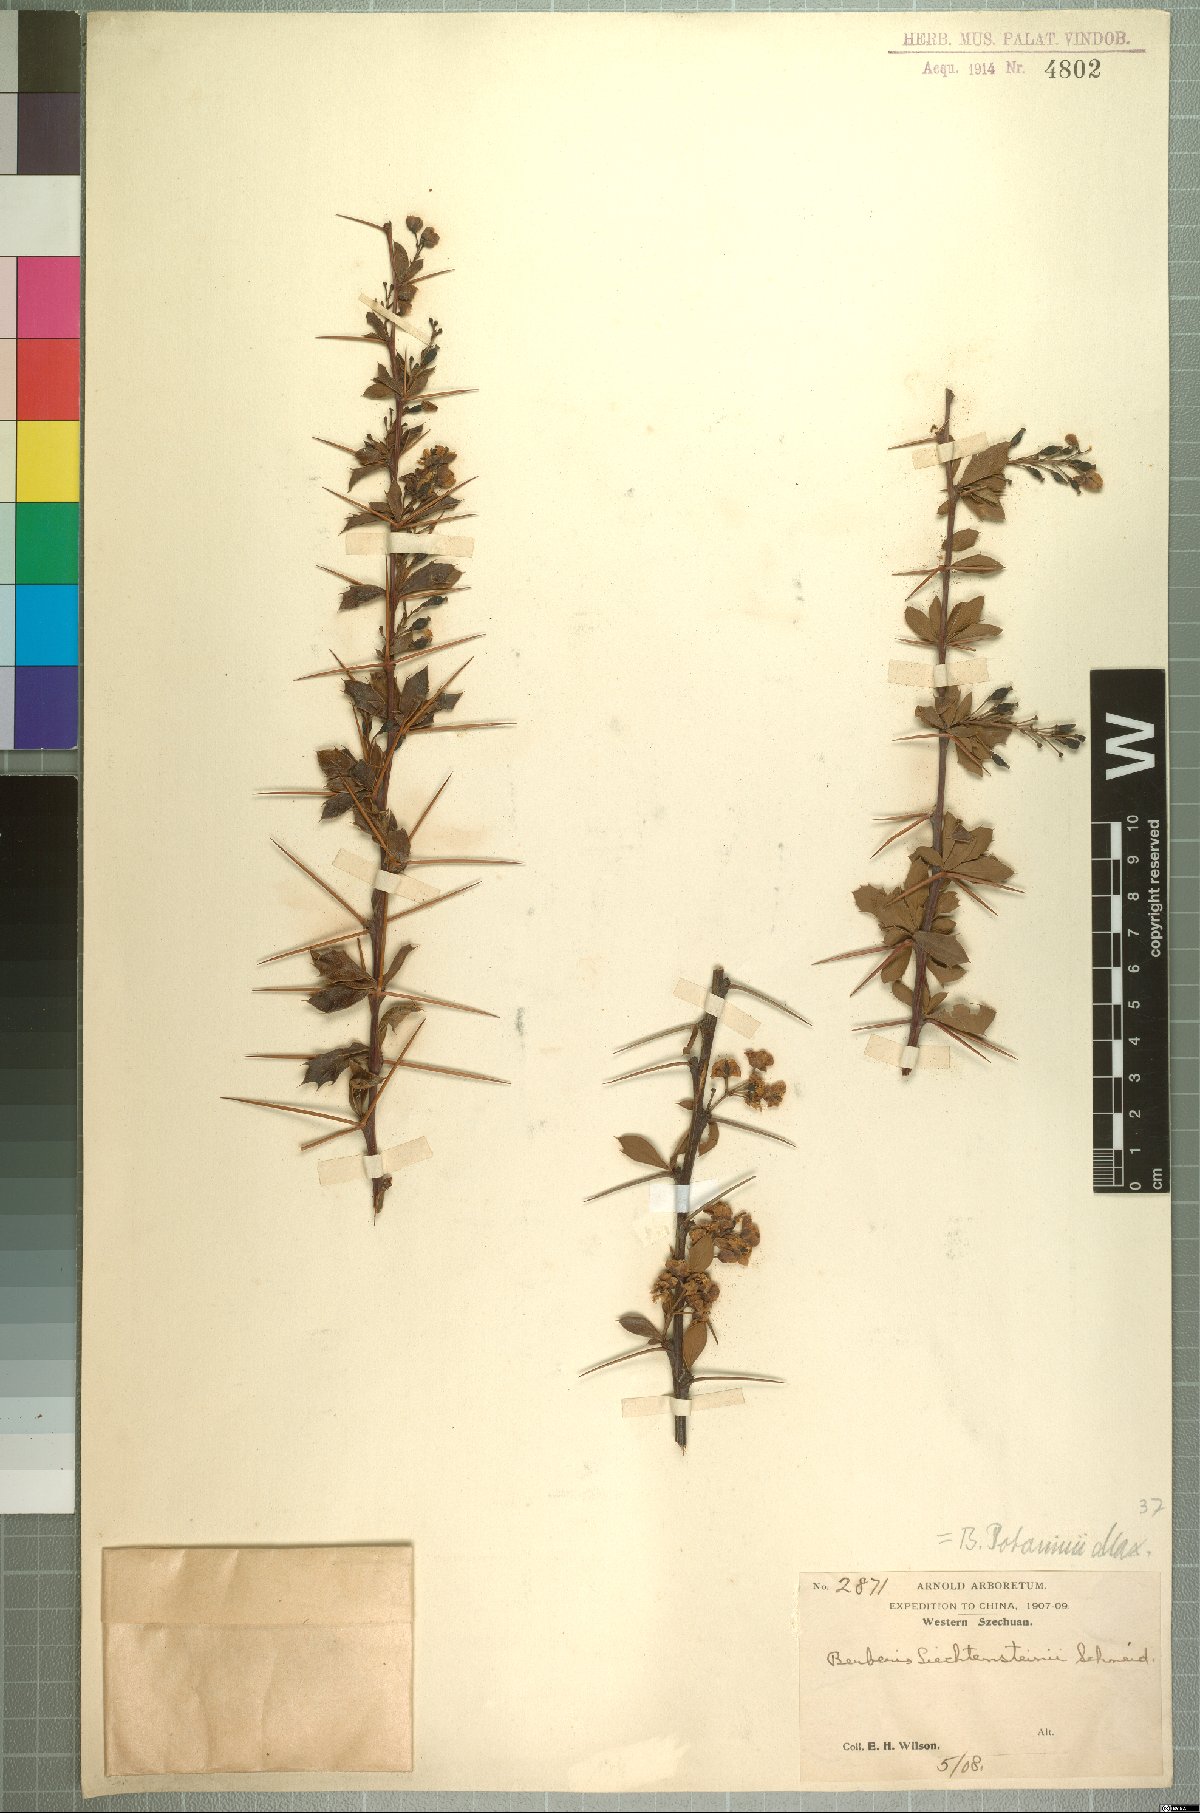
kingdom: Plantae
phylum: Tracheophyta
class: Magnoliopsida
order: Ranunculales
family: Berberidaceae
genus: Berberis
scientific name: Berberis liechtensteinii
